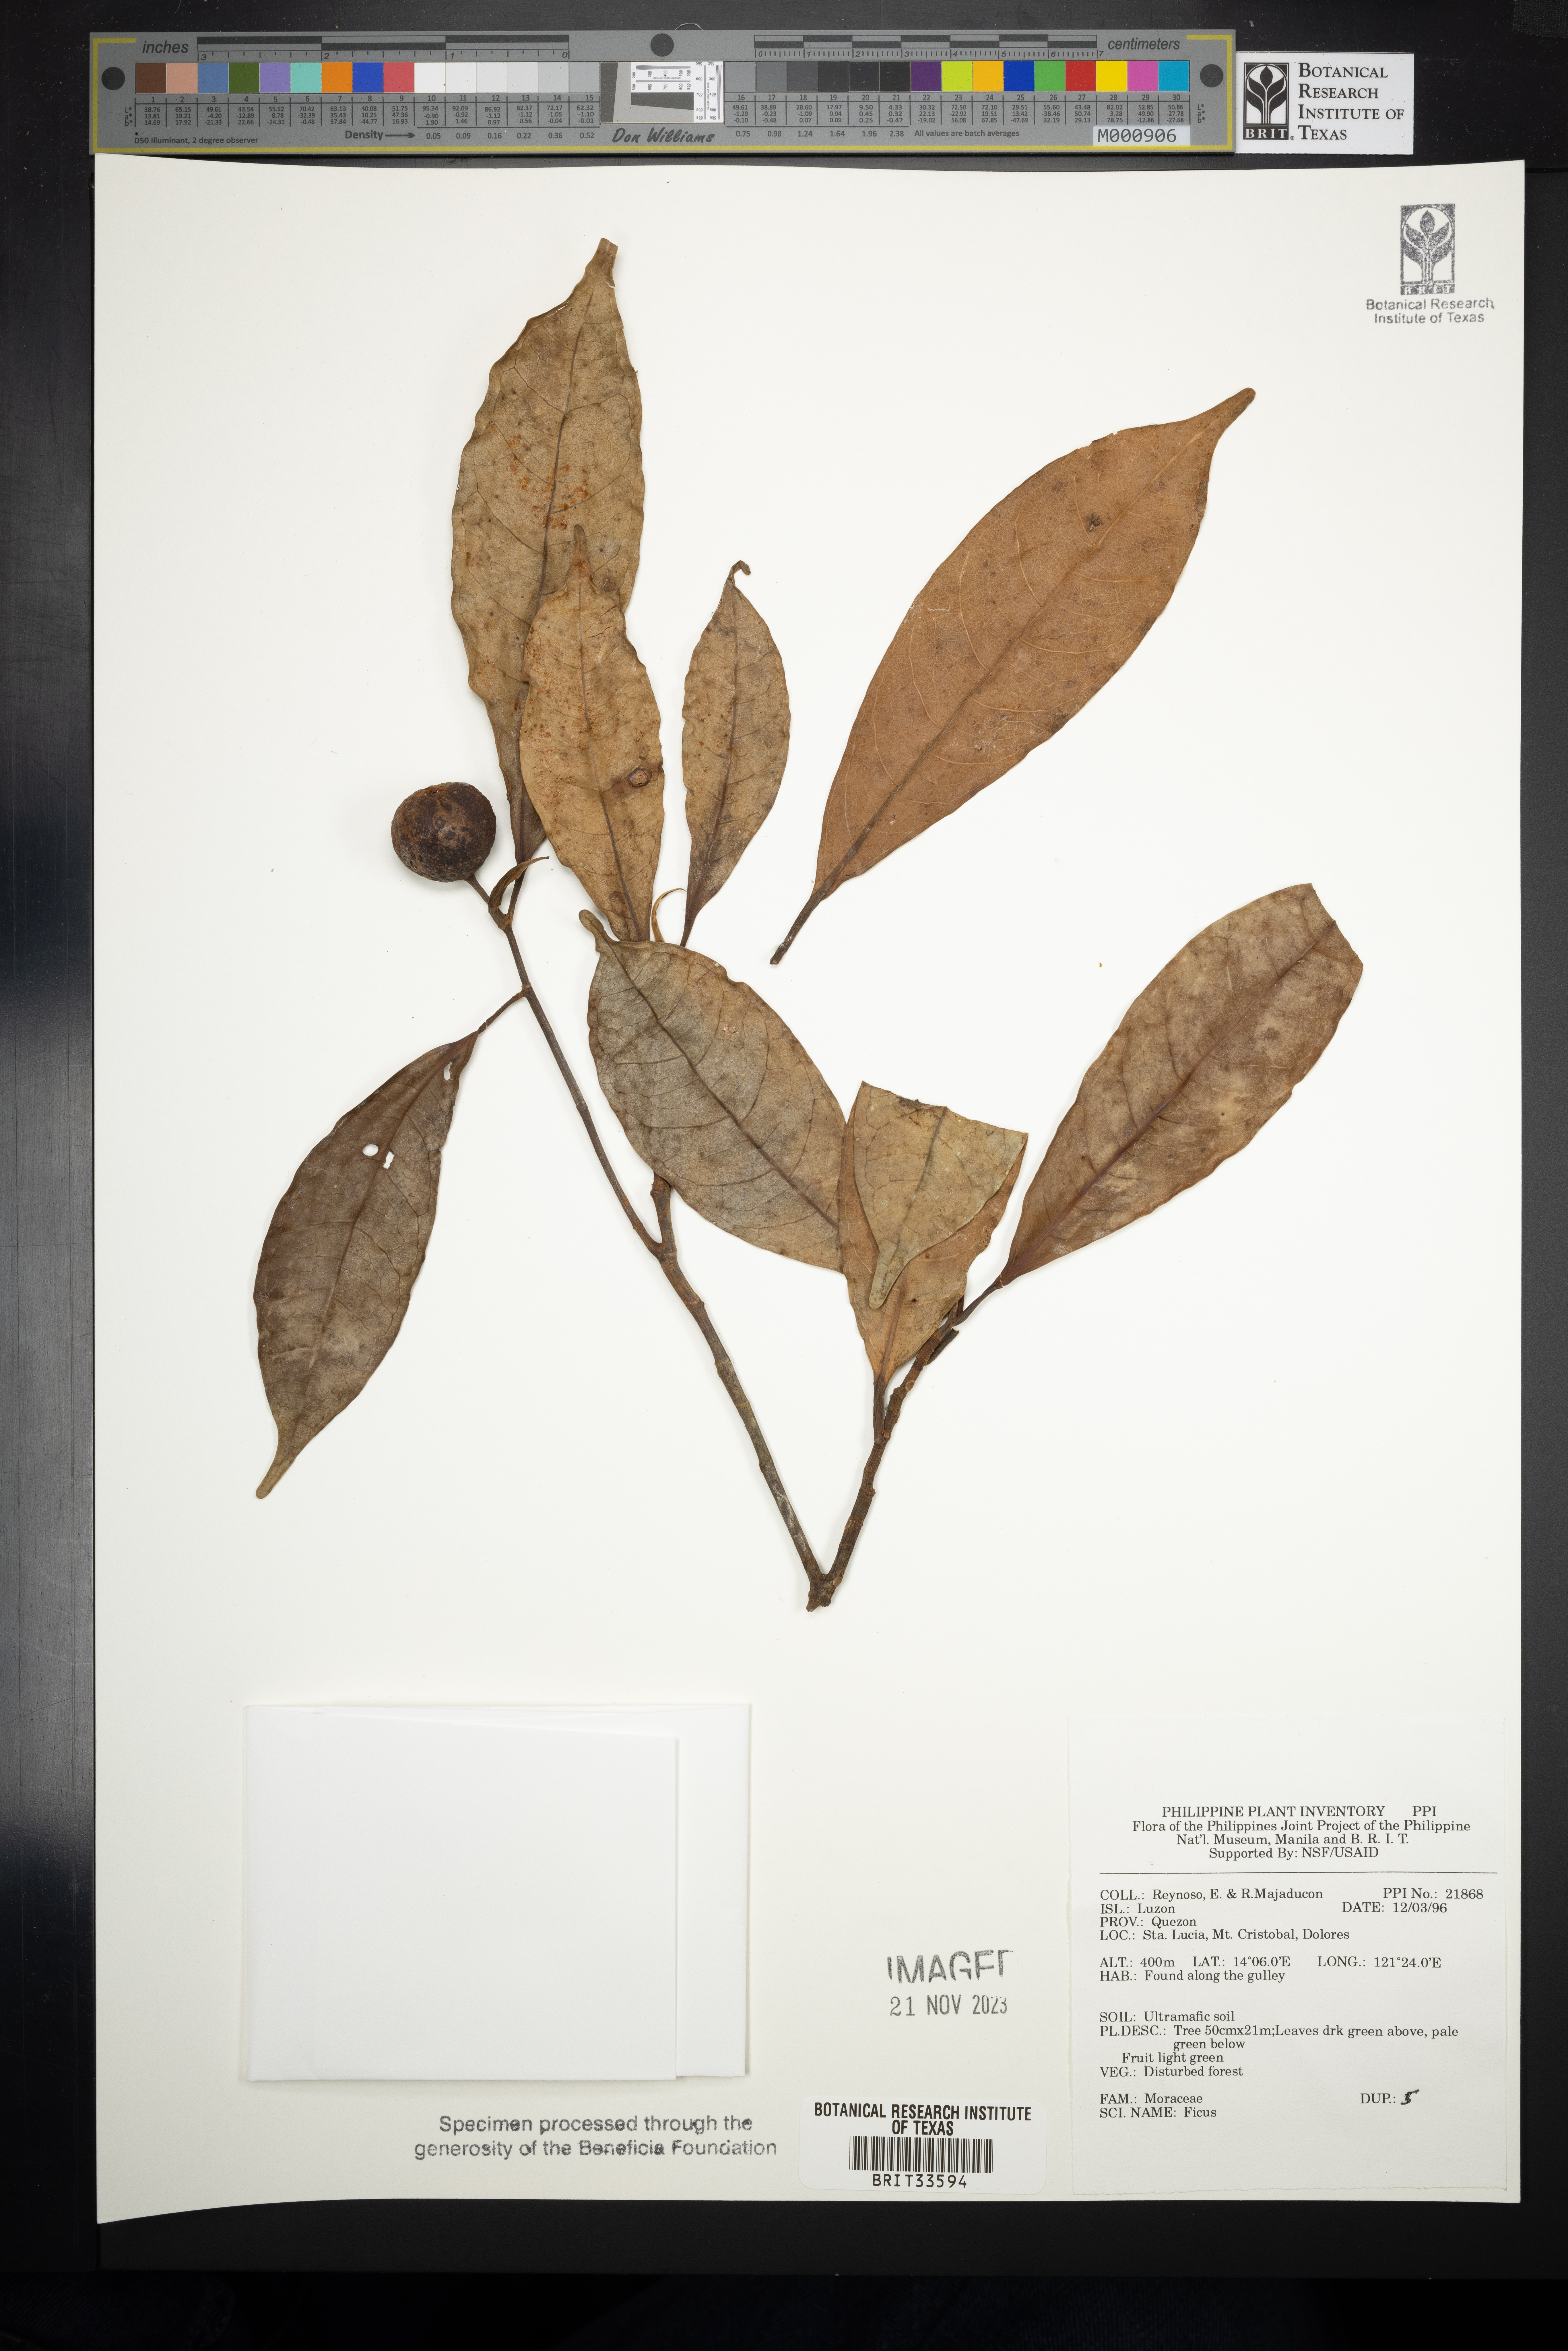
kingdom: Plantae
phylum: Tracheophyta
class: Magnoliopsida
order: Rosales
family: Moraceae
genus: Ficus
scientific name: Ficus
